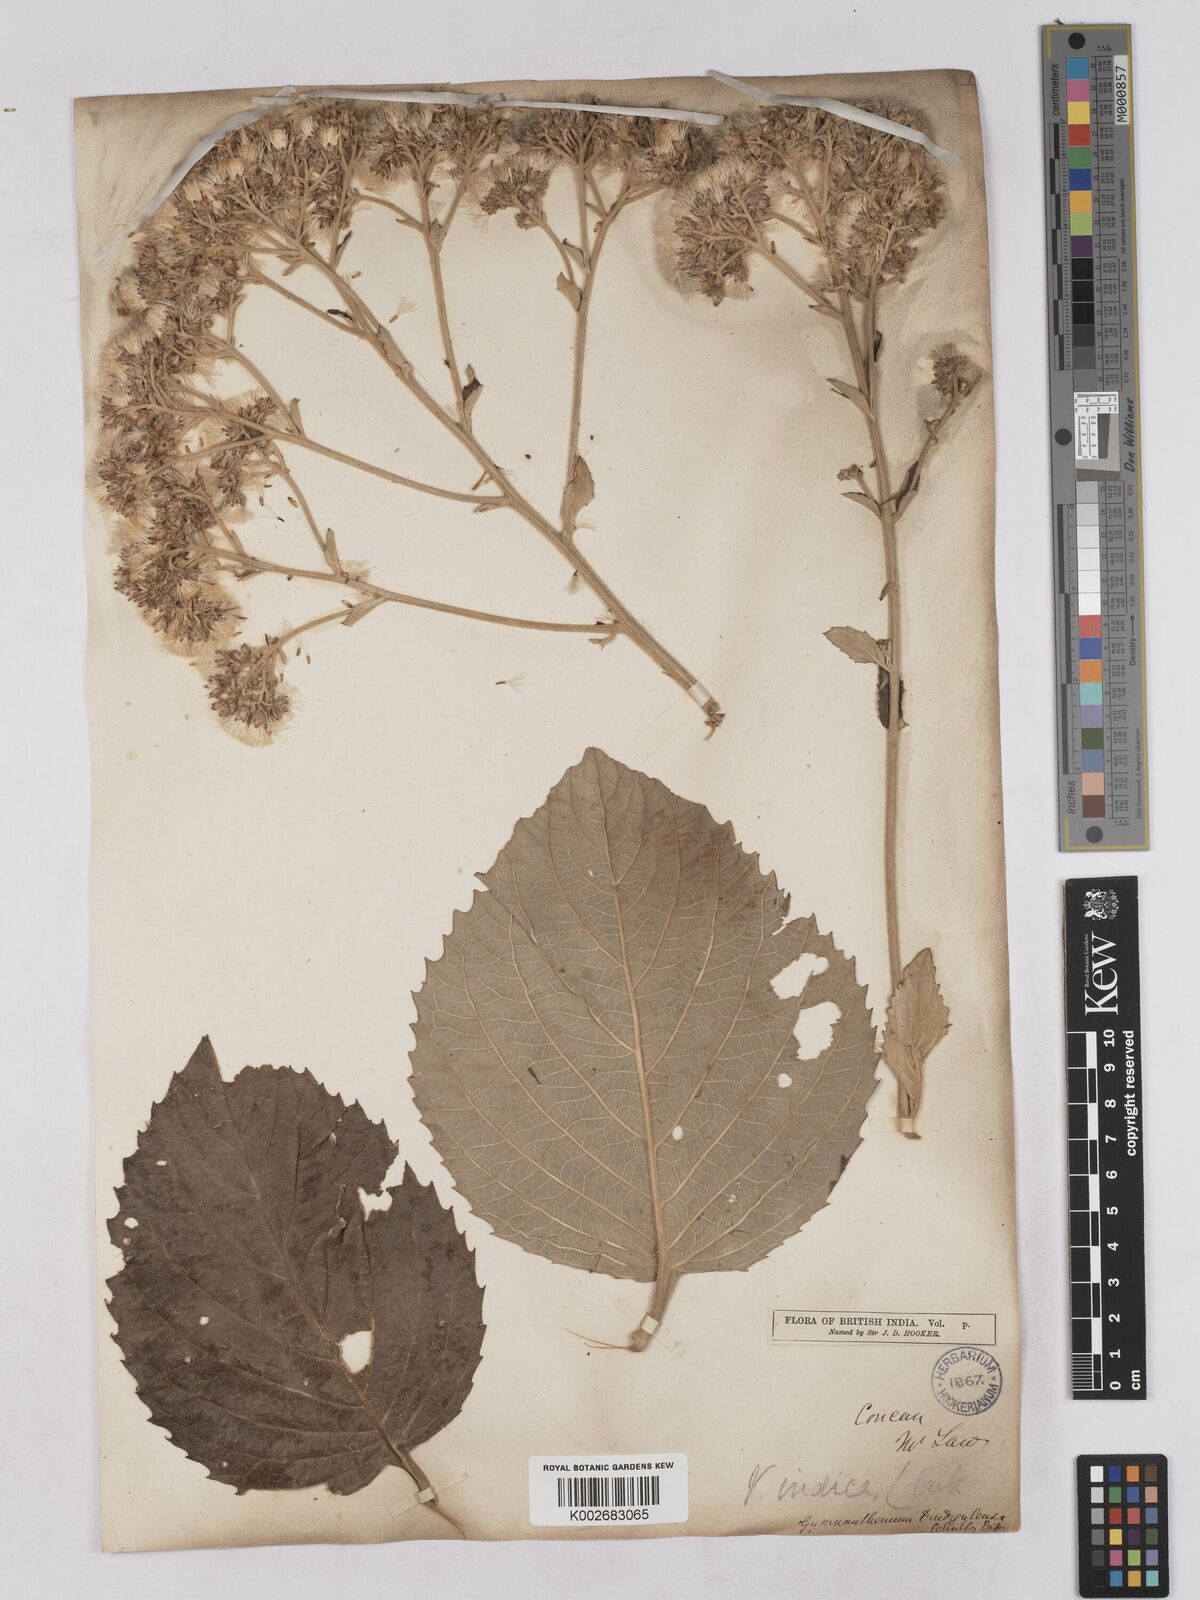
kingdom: Plantae
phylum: Tracheophyta
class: Magnoliopsida
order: Asterales
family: Asteraceae
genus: Acilepis
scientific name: Acilepis dendigulensis
